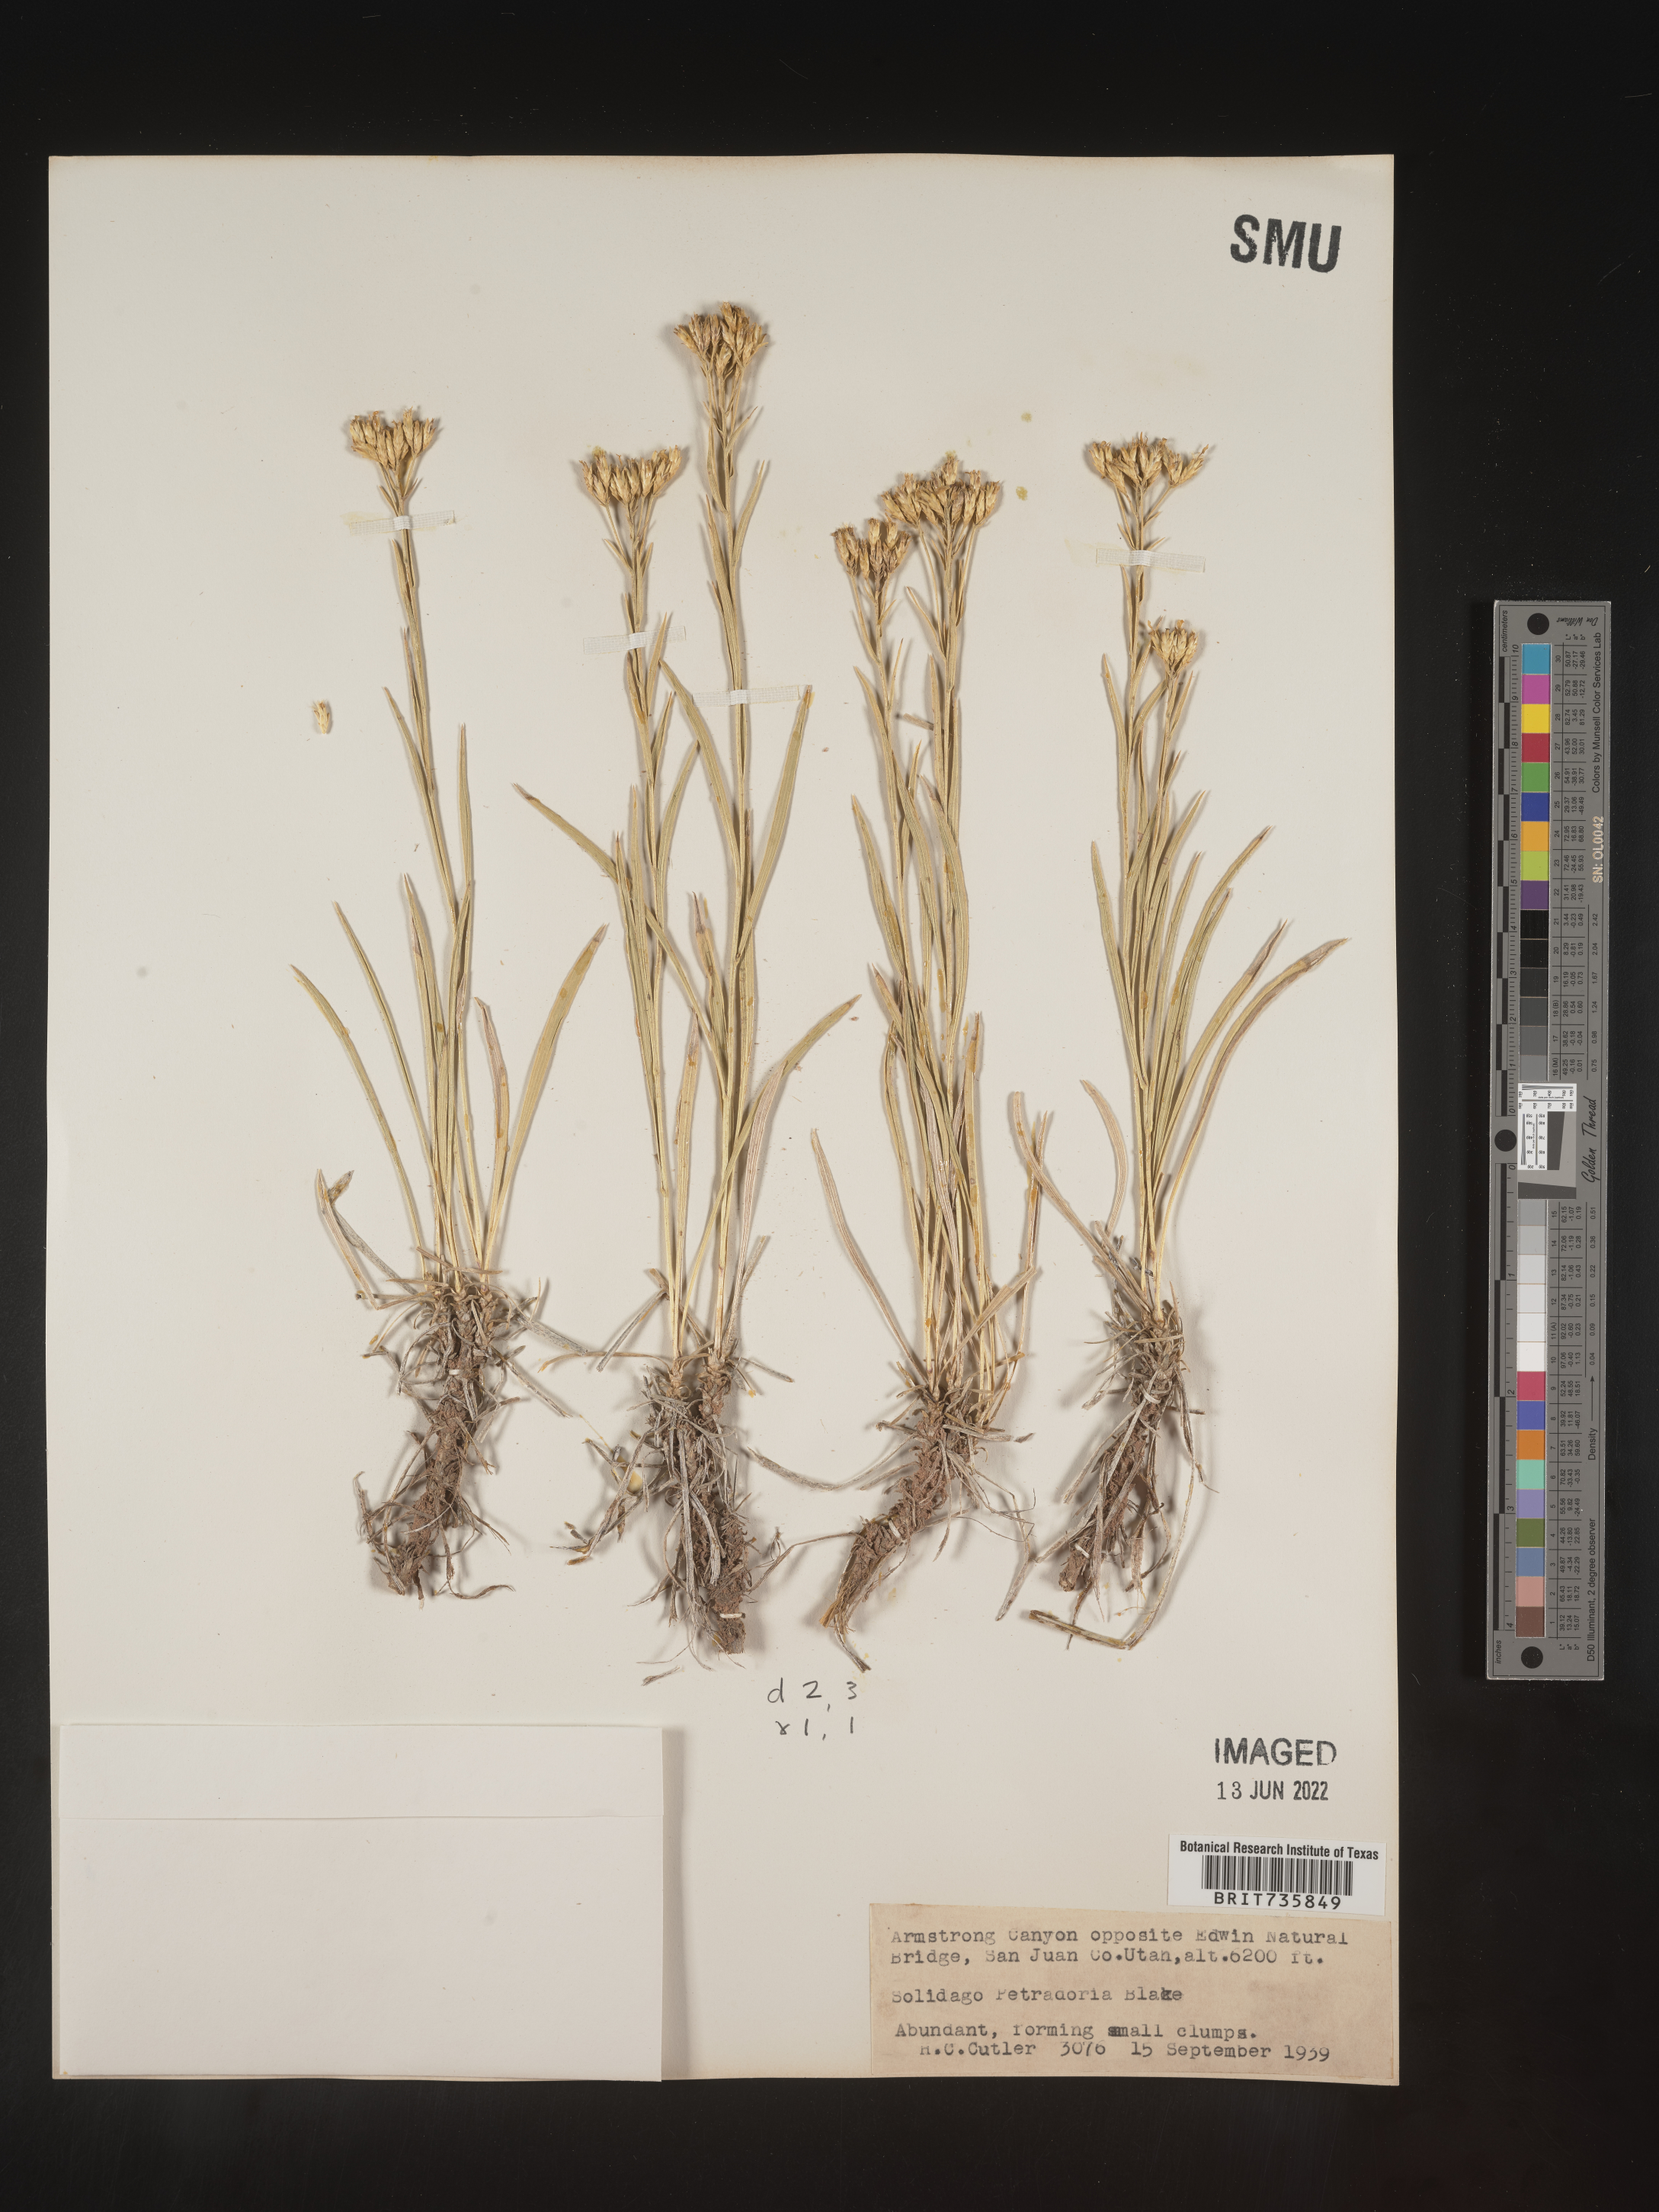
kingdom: Plantae
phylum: Tracheophyta
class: Magnoliopsida
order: Asterales
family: Asteraceae
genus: Petradoria
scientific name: Petradoria pumila
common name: Rock-goldenrod
